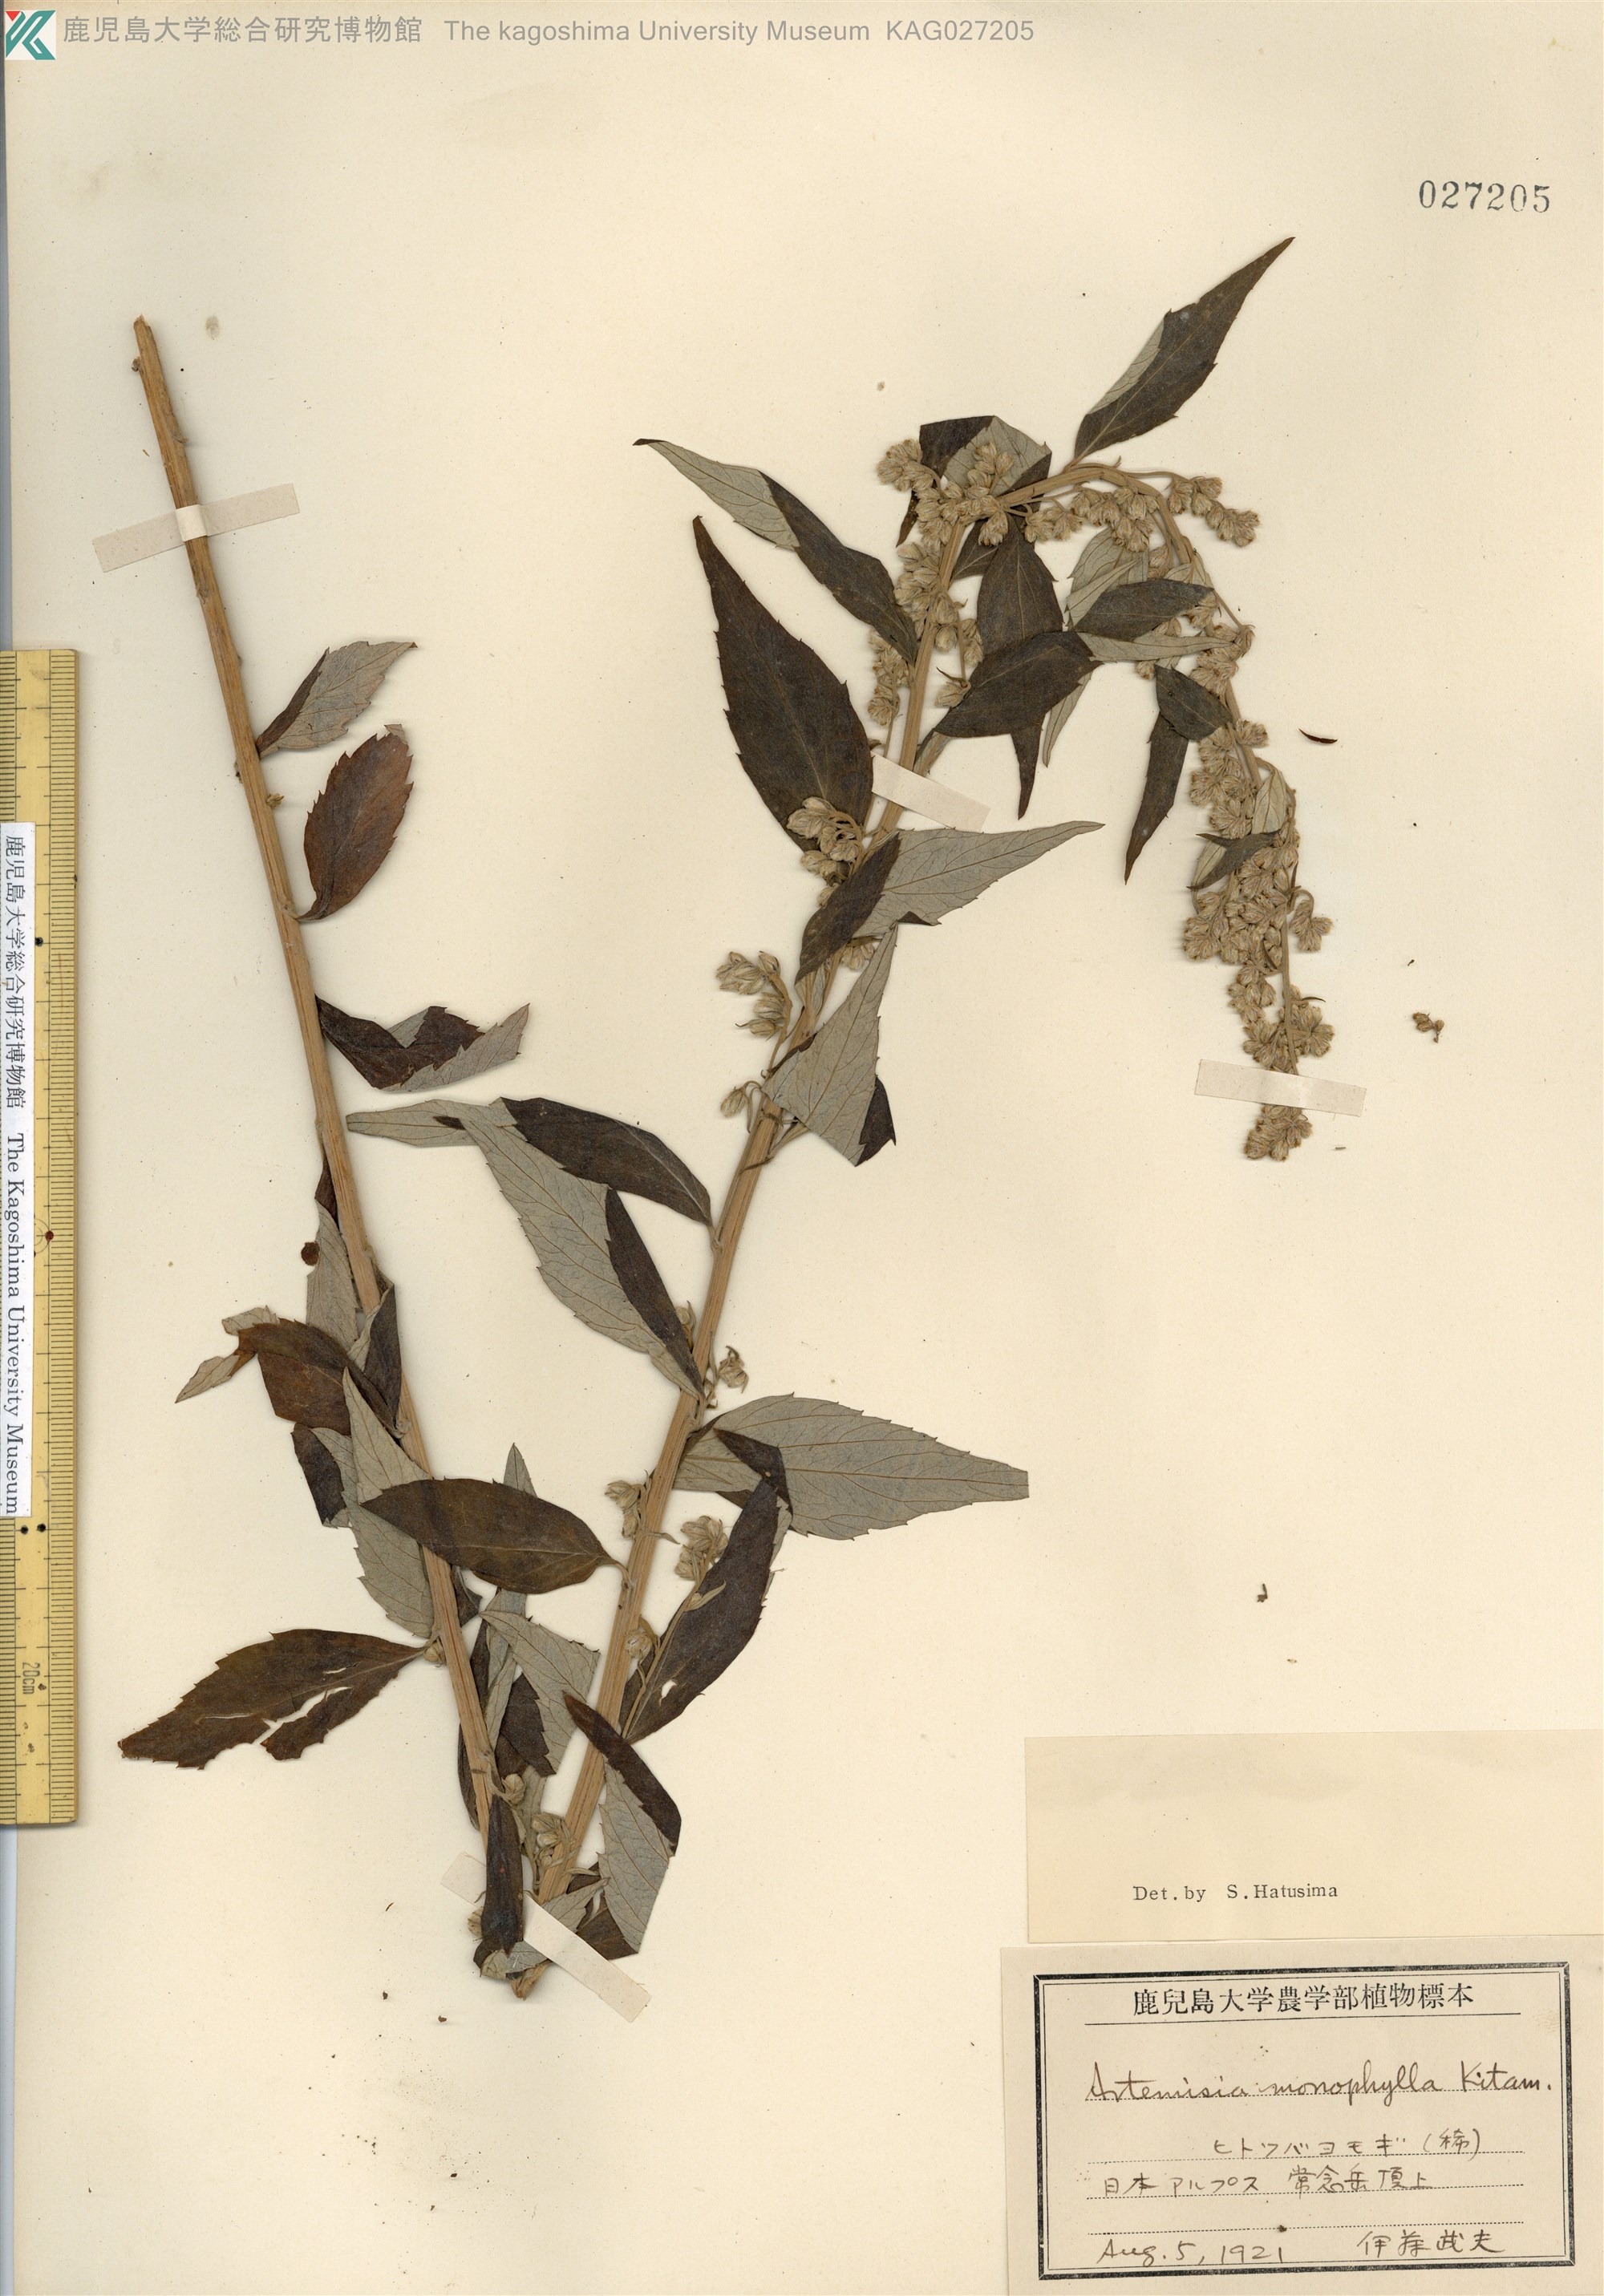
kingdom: Plantae
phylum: Tracheophyta
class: Magnoliopsida
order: Asterales
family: Asteraceae
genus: Artemisia
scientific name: Artemisia monophylla
